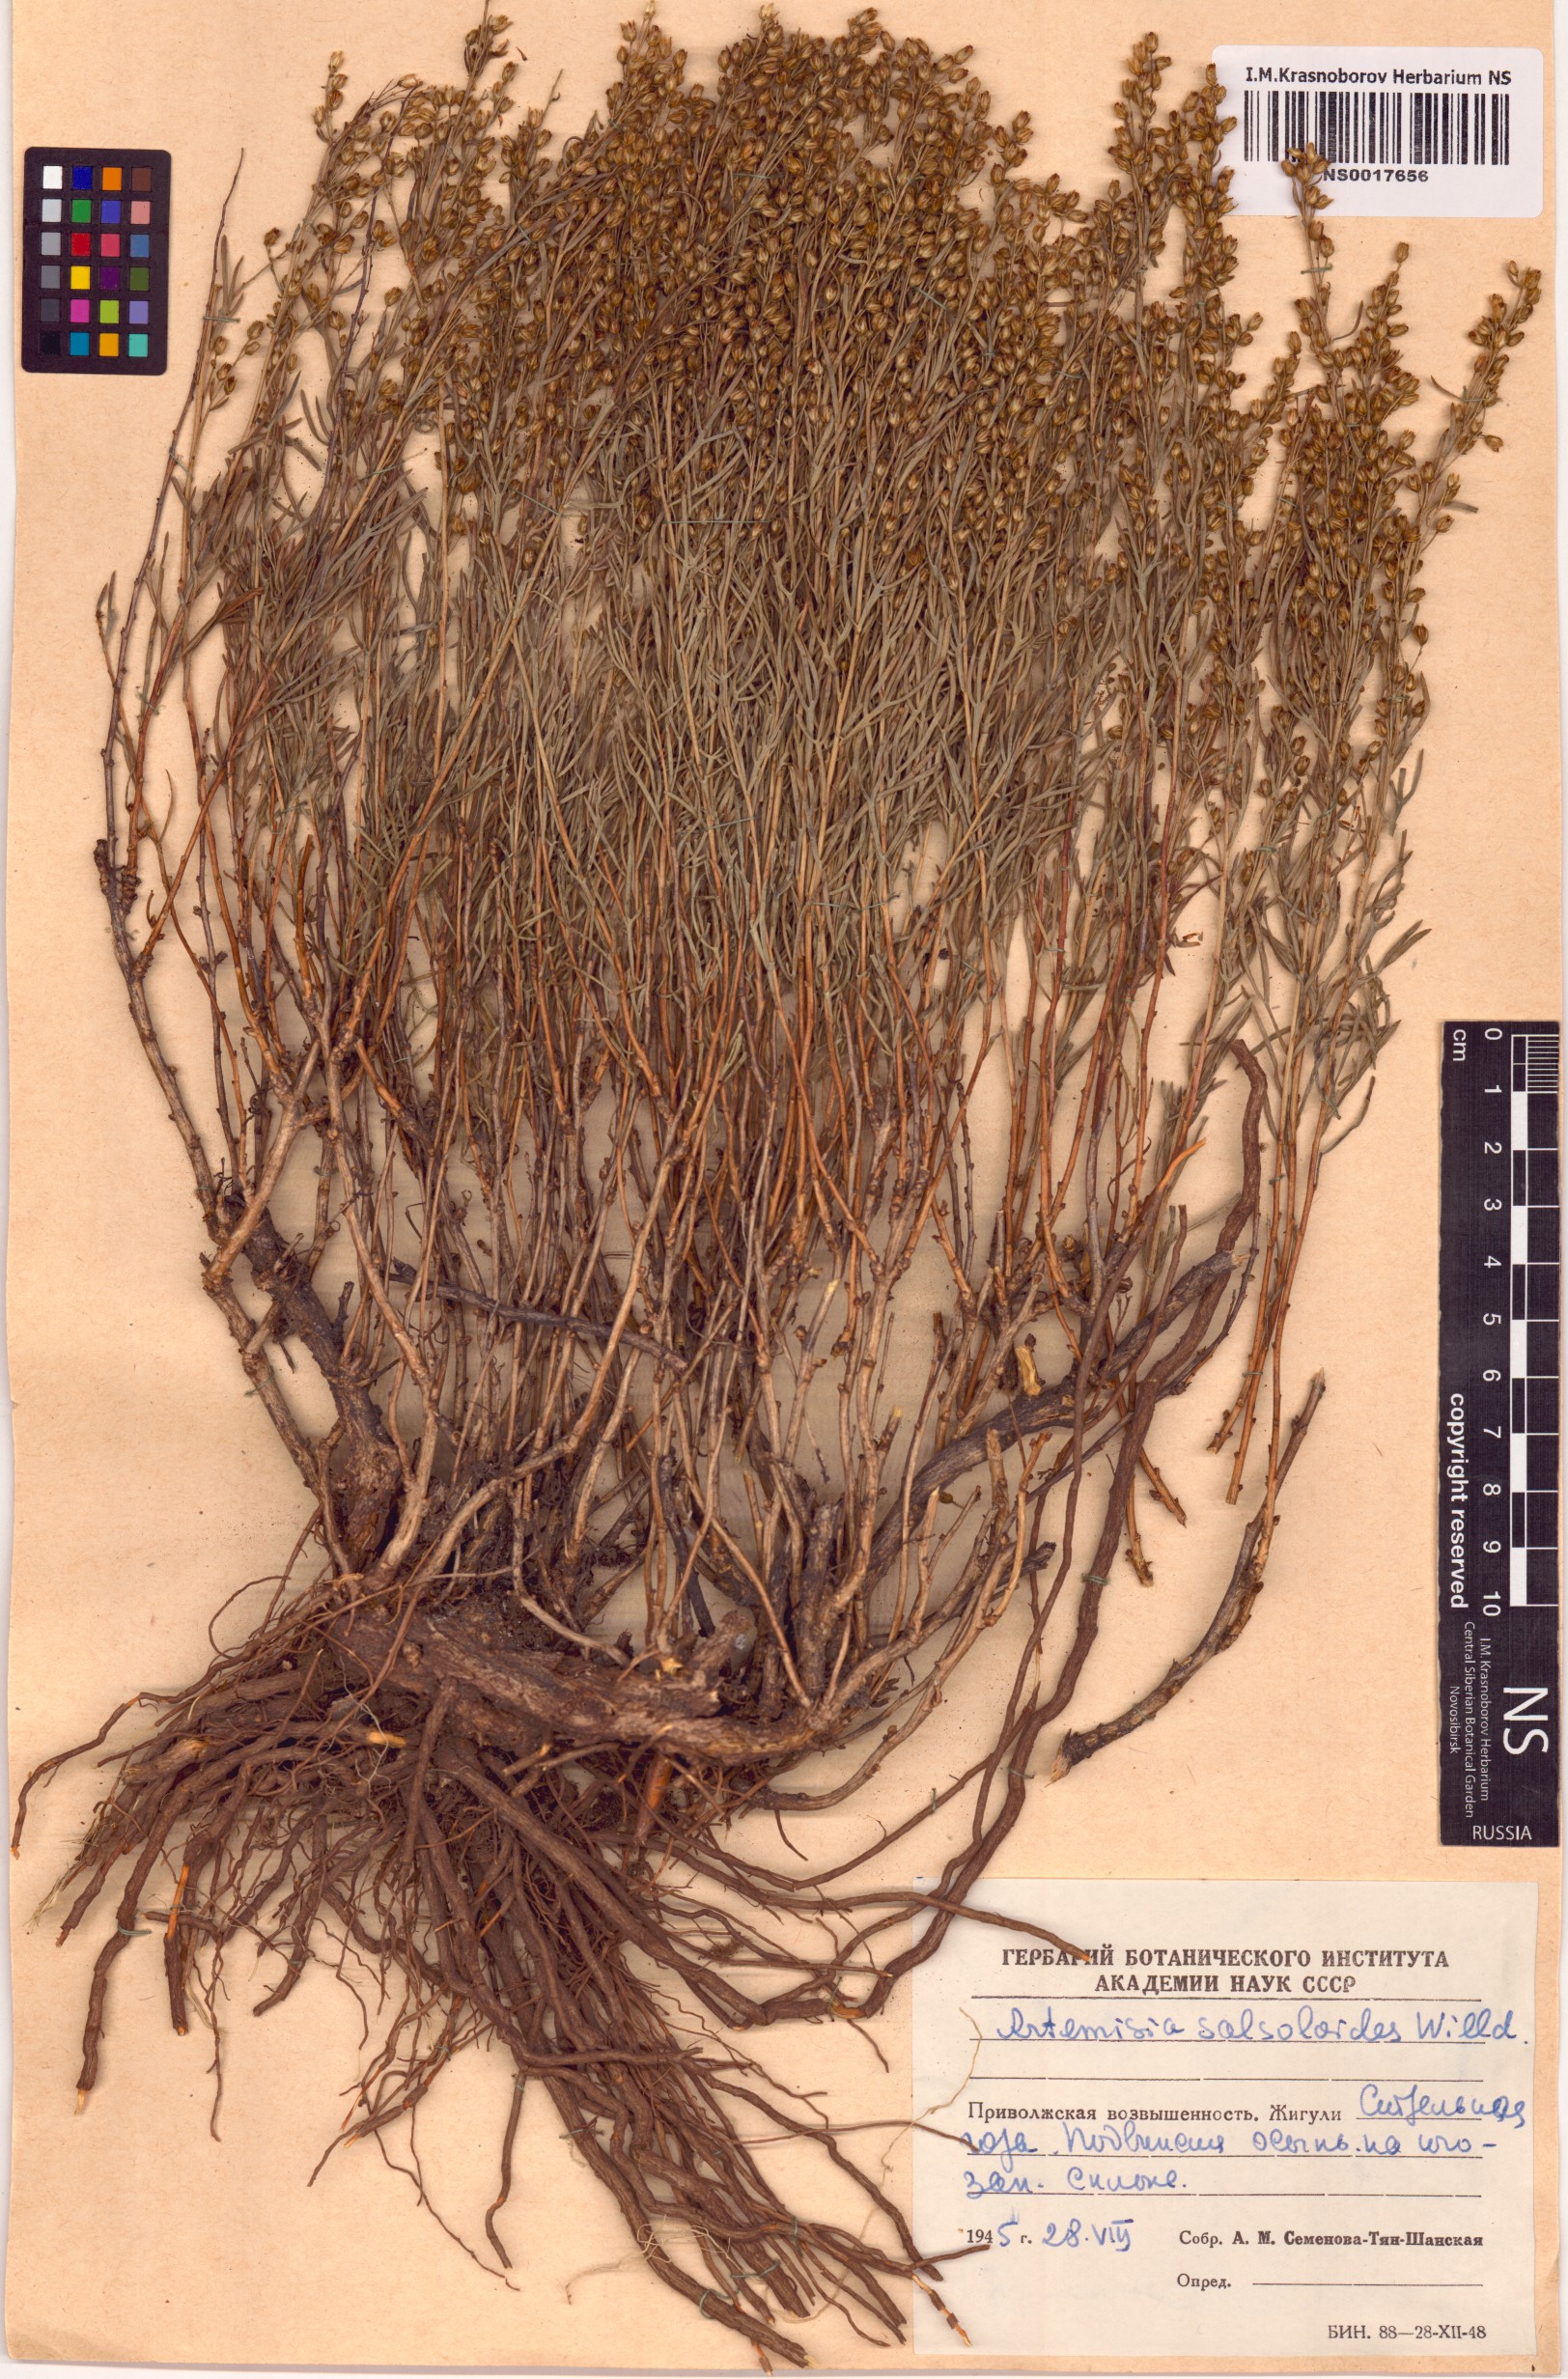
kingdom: Plantae
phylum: Tracheophyta
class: Magnoliopsida
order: Asterales
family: Asteraceae
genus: Artemisia
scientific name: Artemisia salsoloides
